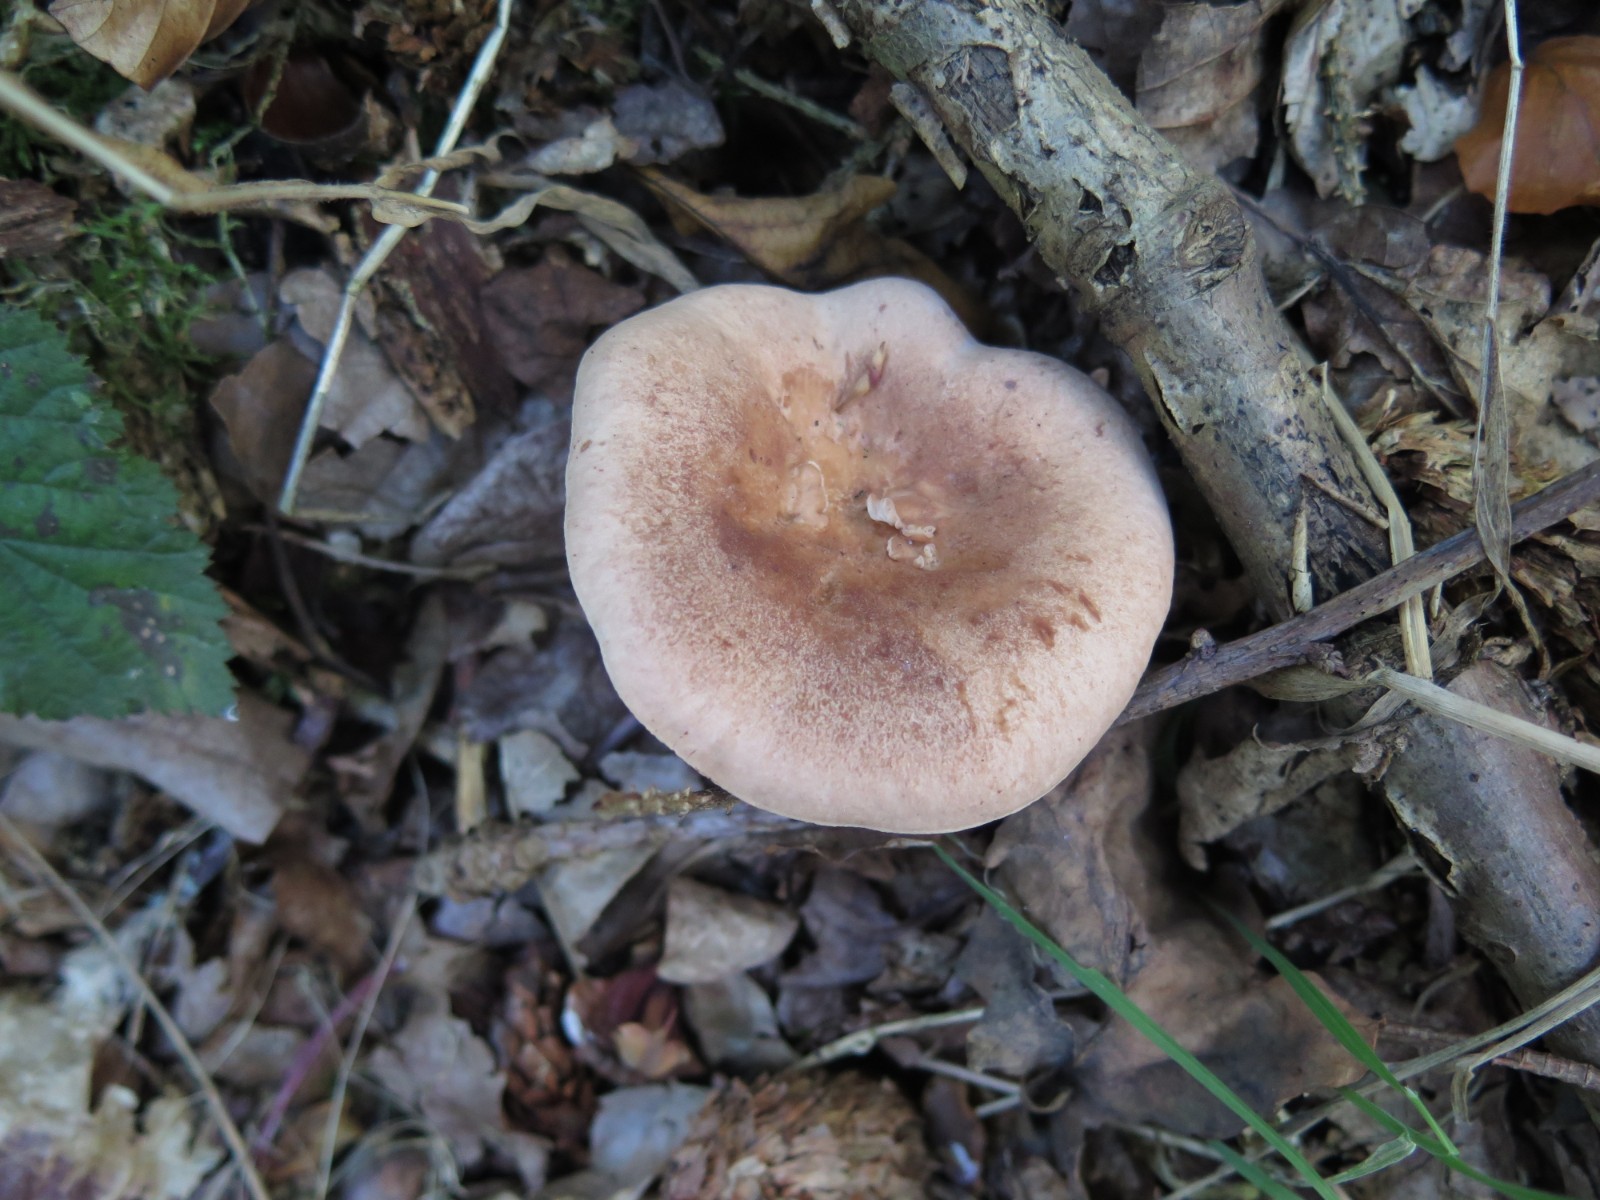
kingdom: Fungi
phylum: Basidiomycota
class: Agaricomycetes
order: Russulales
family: Russulaceae
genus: Lactarius
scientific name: Lactarius quietus
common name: ege-mælkehat
